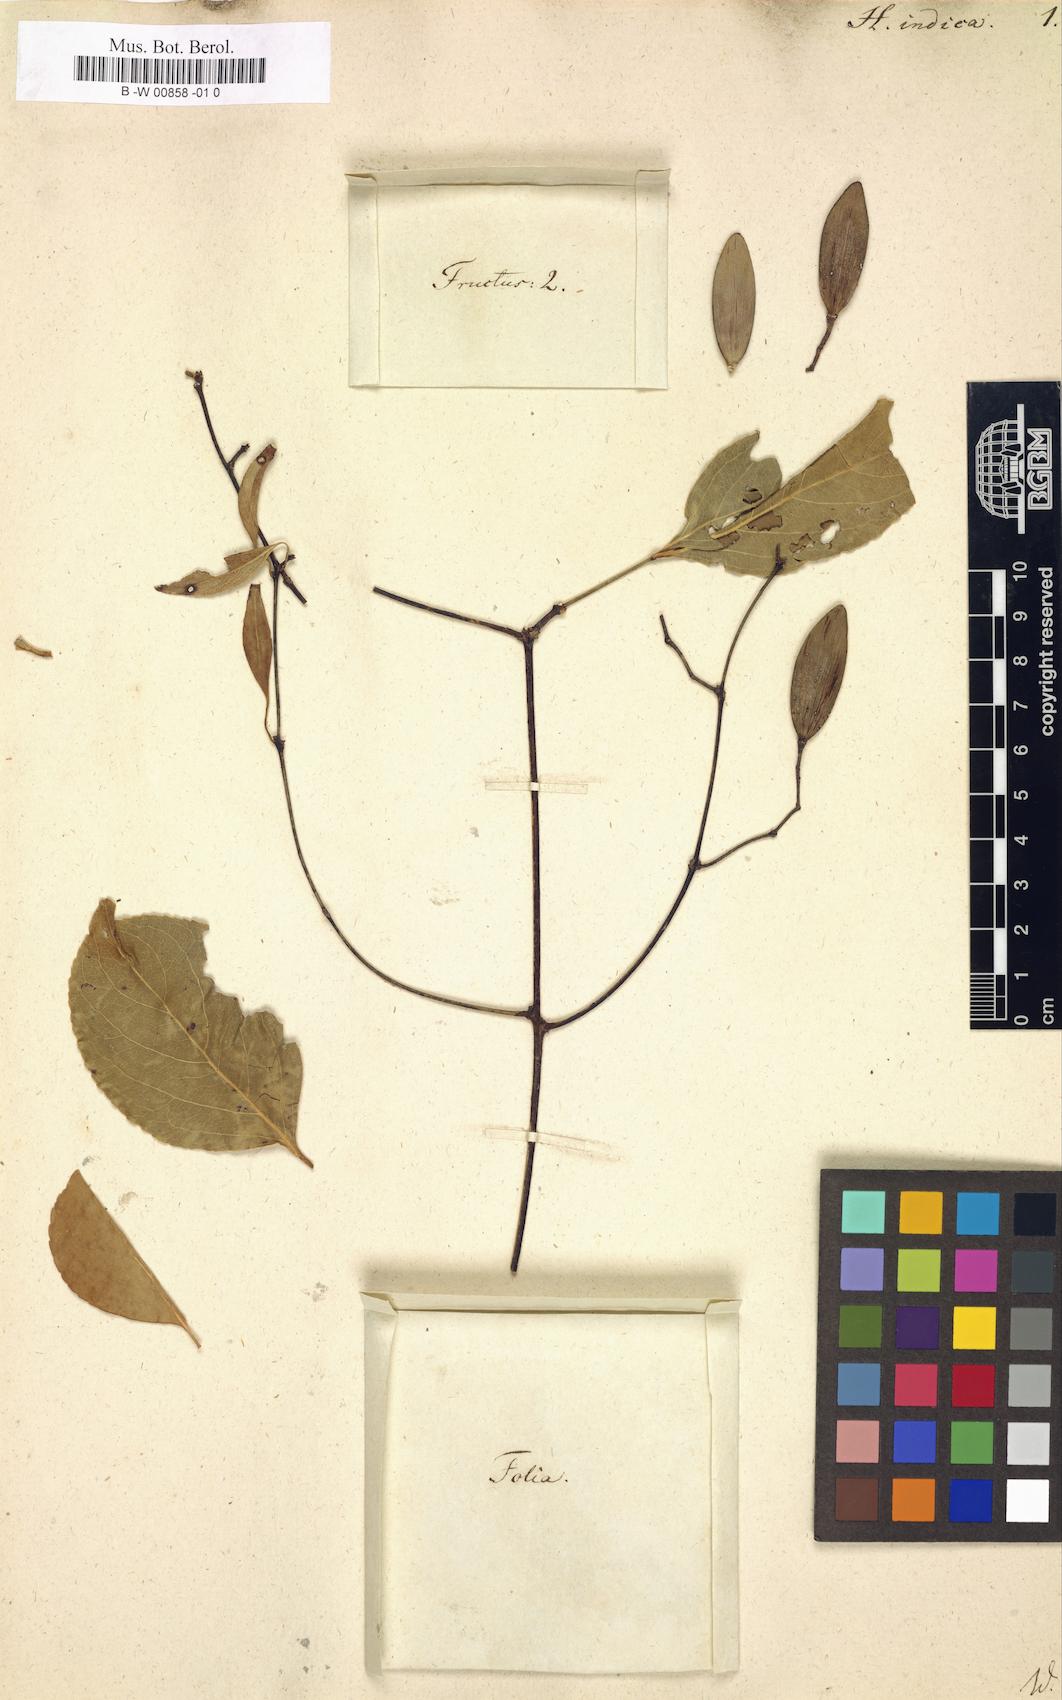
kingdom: Plantae
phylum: Tracheophyta
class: Magnoliopsida
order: Celastrales
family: Celastraceae
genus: Reissantia
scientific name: Reissantia indica
